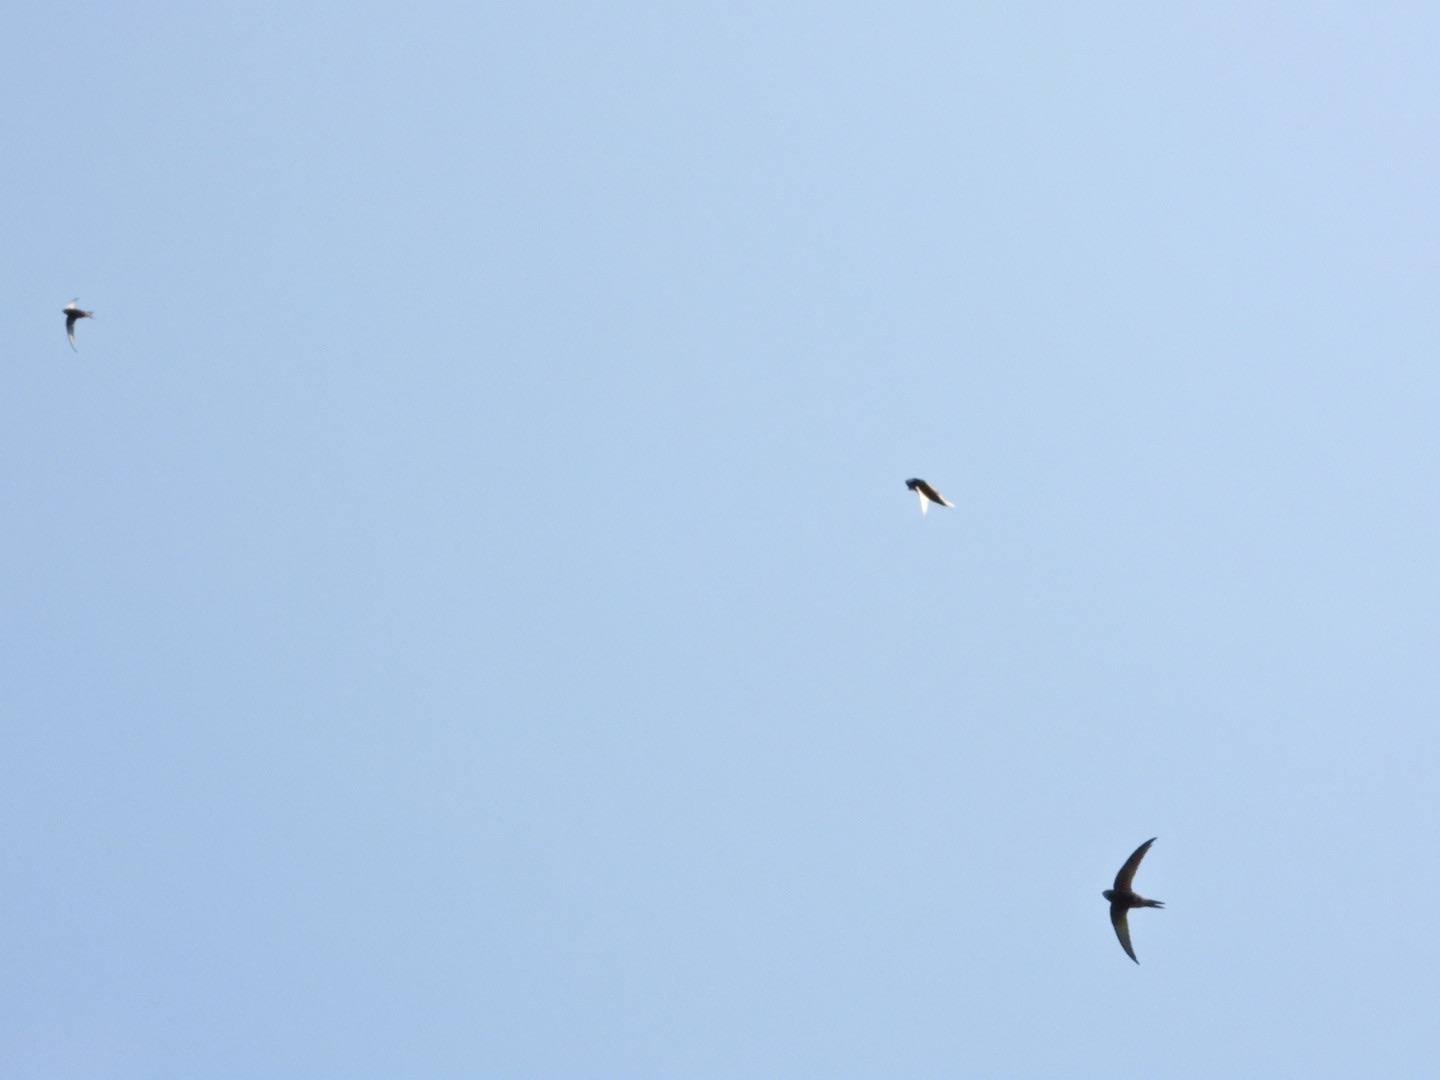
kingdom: Animalia
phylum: Chordata
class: Aves
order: Apodiformes
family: Apodidae
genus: Apus
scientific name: Apus apus
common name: Mursejler
